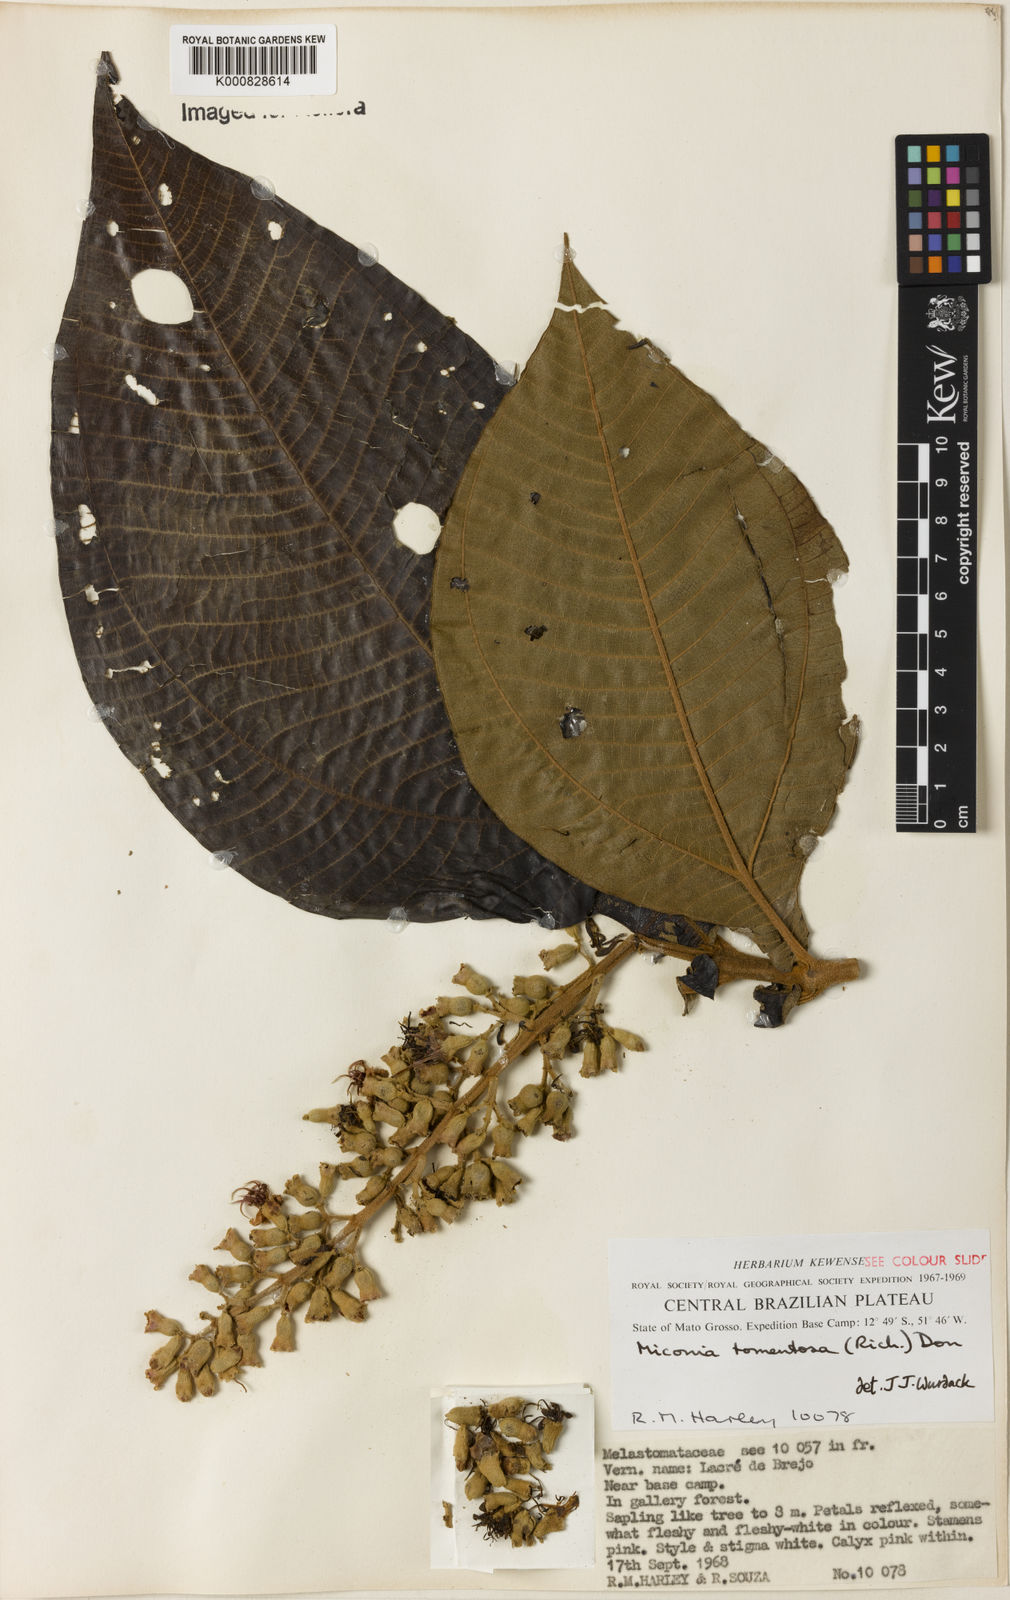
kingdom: Plantae
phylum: Tracheophyta
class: Magnoliopsida
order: Myrtales
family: Melastomataceae
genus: Miconia
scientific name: Miconia tomentosa
